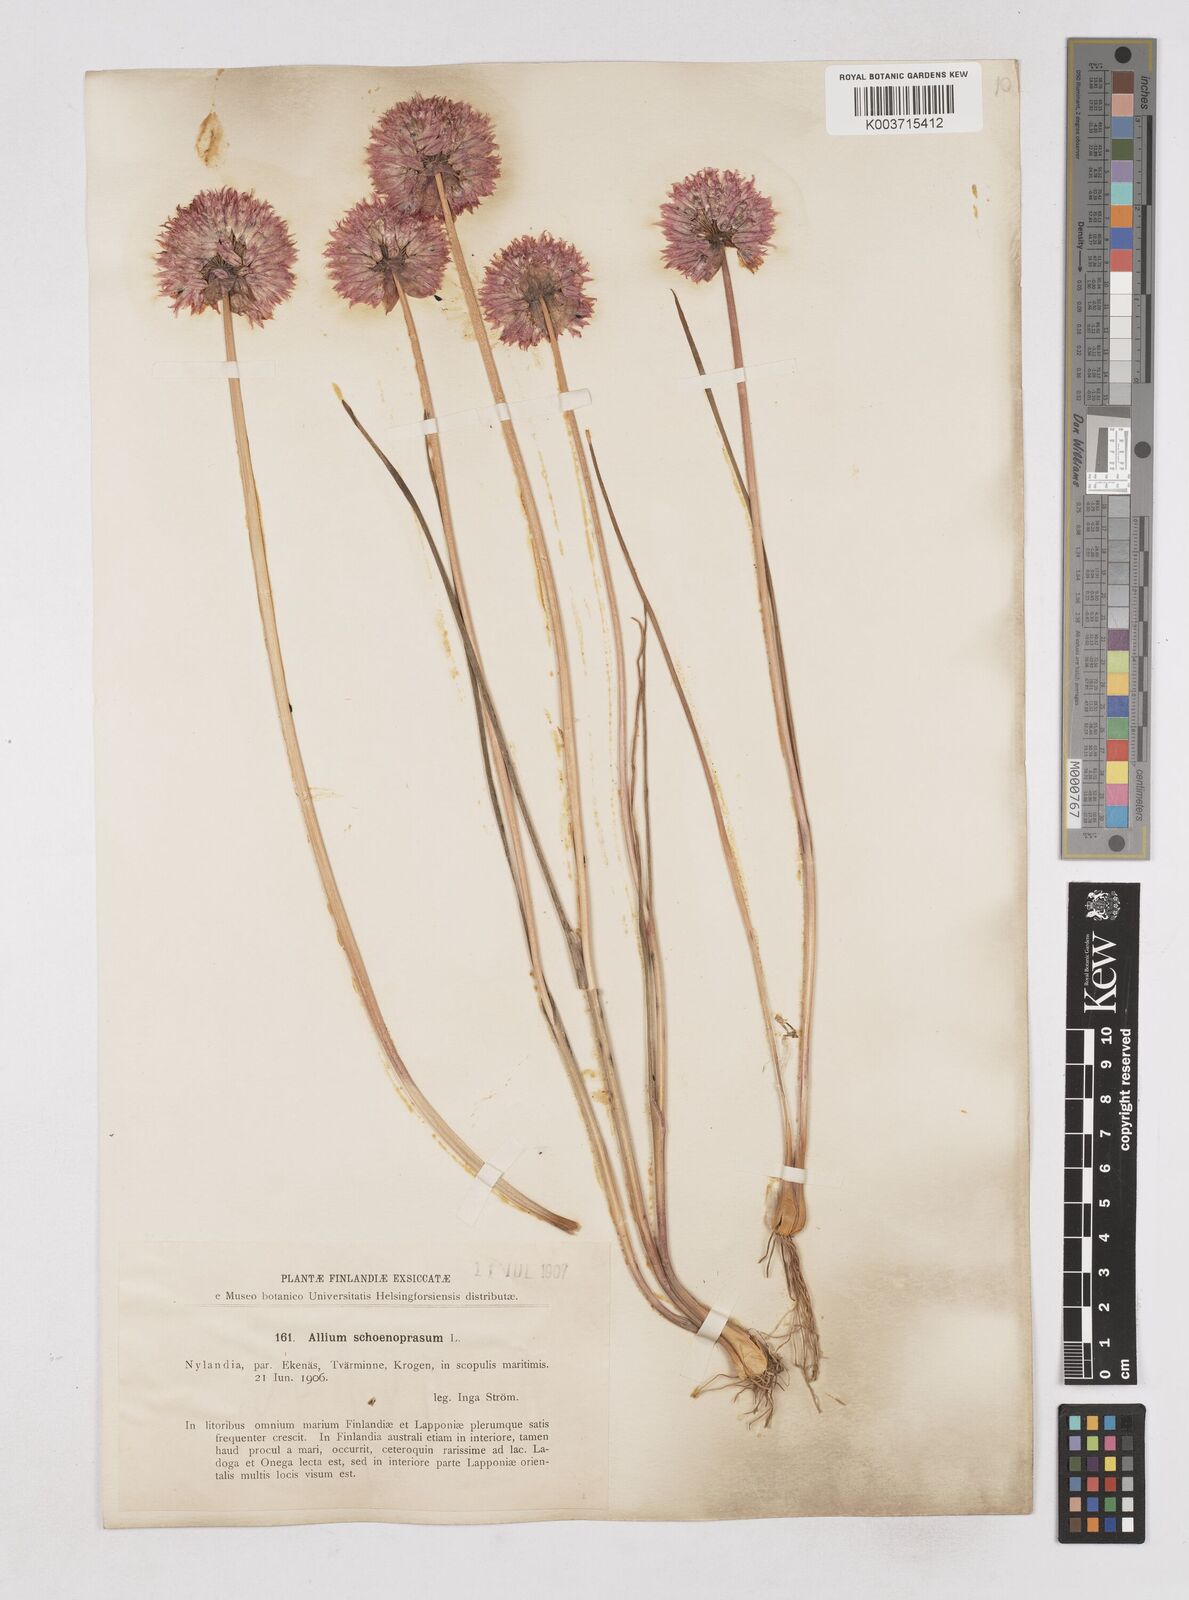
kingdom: Plantae
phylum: Tracheophyta
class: Liliopsida
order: Asparagales
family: Amaryllidaceae
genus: Allium
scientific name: Allium schoenoprasum
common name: Chives
